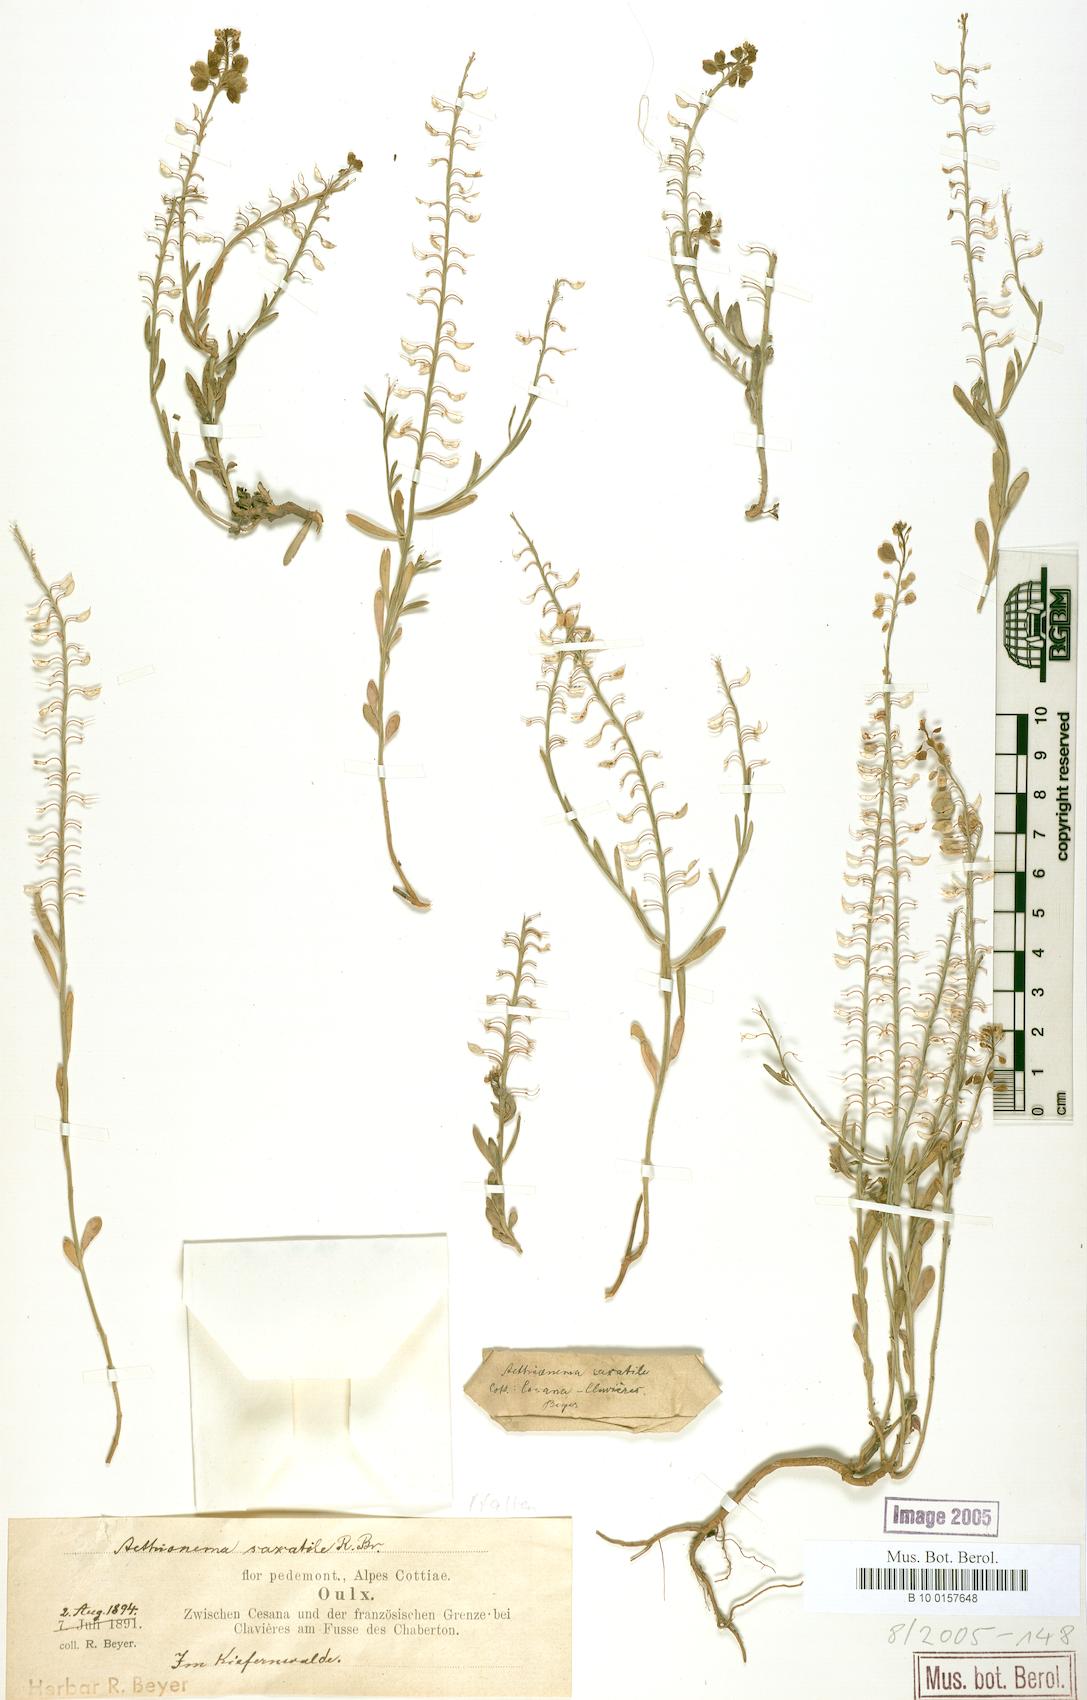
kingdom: Plantae
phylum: Tracheophyta
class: Magnoliopsida
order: Brassicales
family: Brassicaceae
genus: Aethionema
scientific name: Aethionema saxatile
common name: Burnt candytuft
